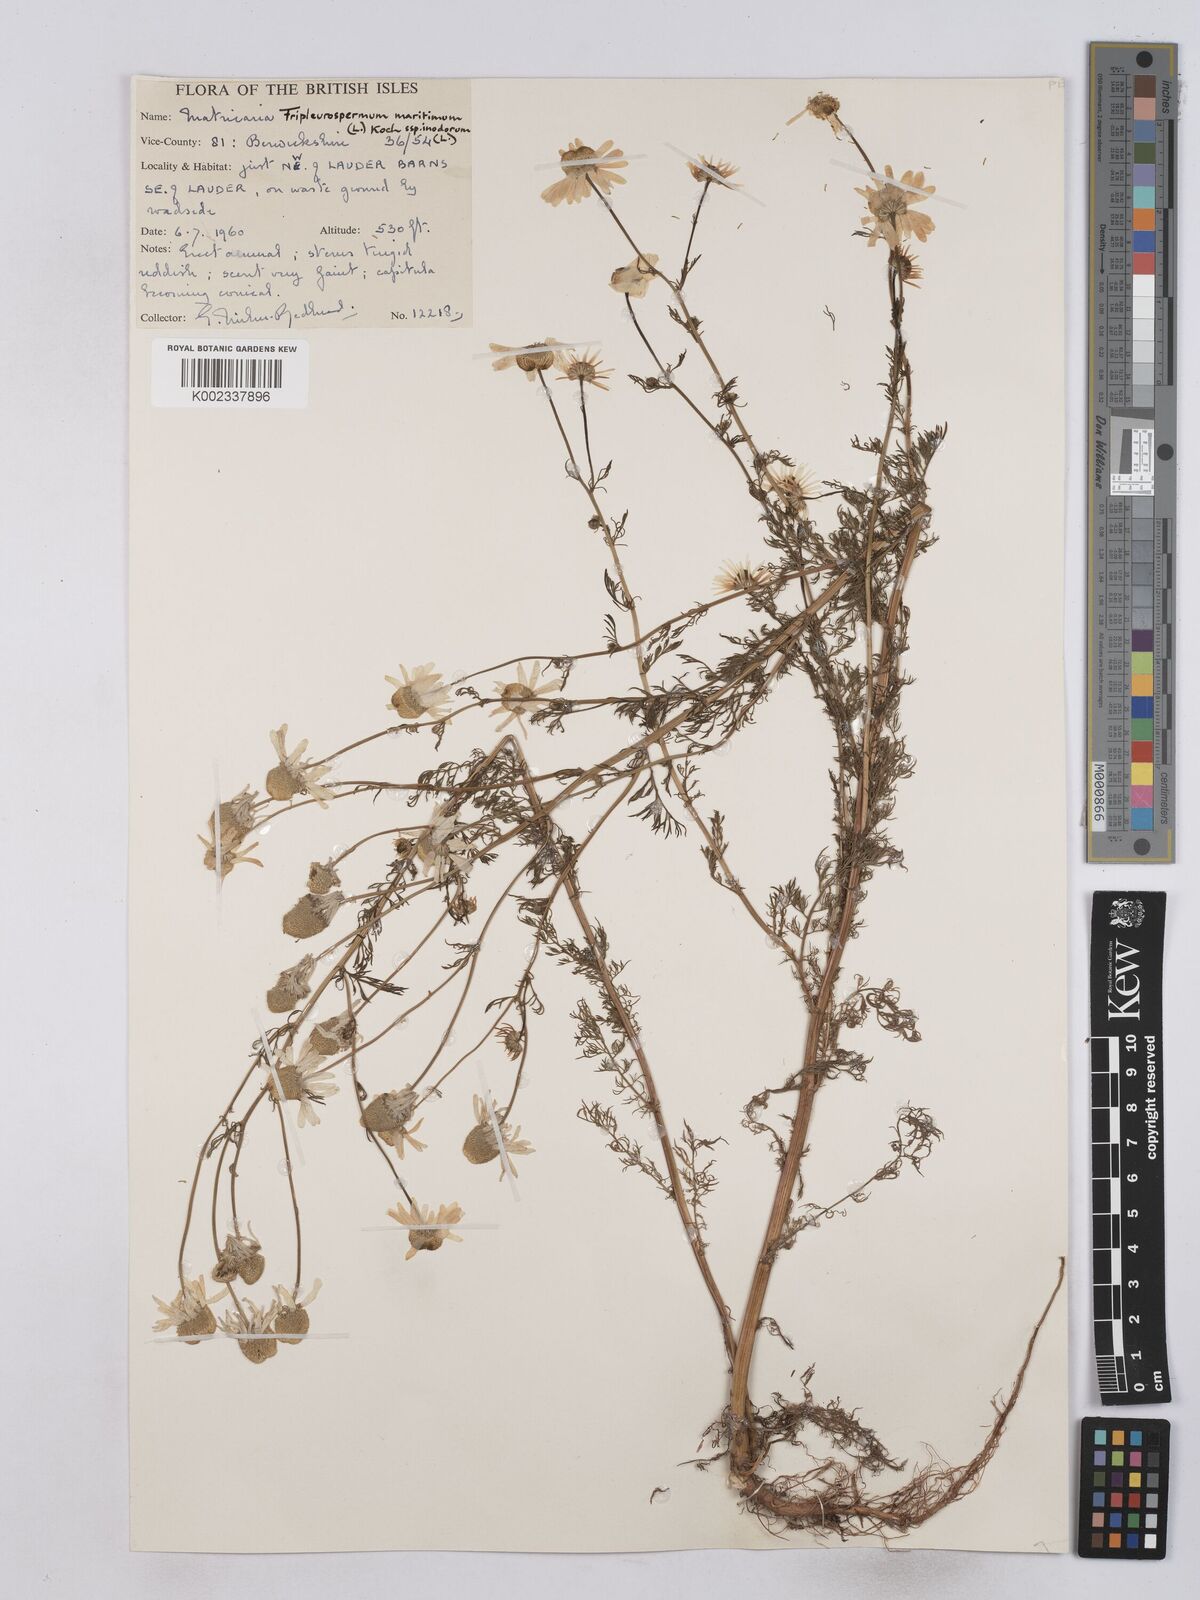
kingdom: Plantae
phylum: Tracheophyta
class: Magnoliopsida
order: Asterales
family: Asteraceae
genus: Matricaria
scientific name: Matricaria discoidea
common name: Disc mayweed
